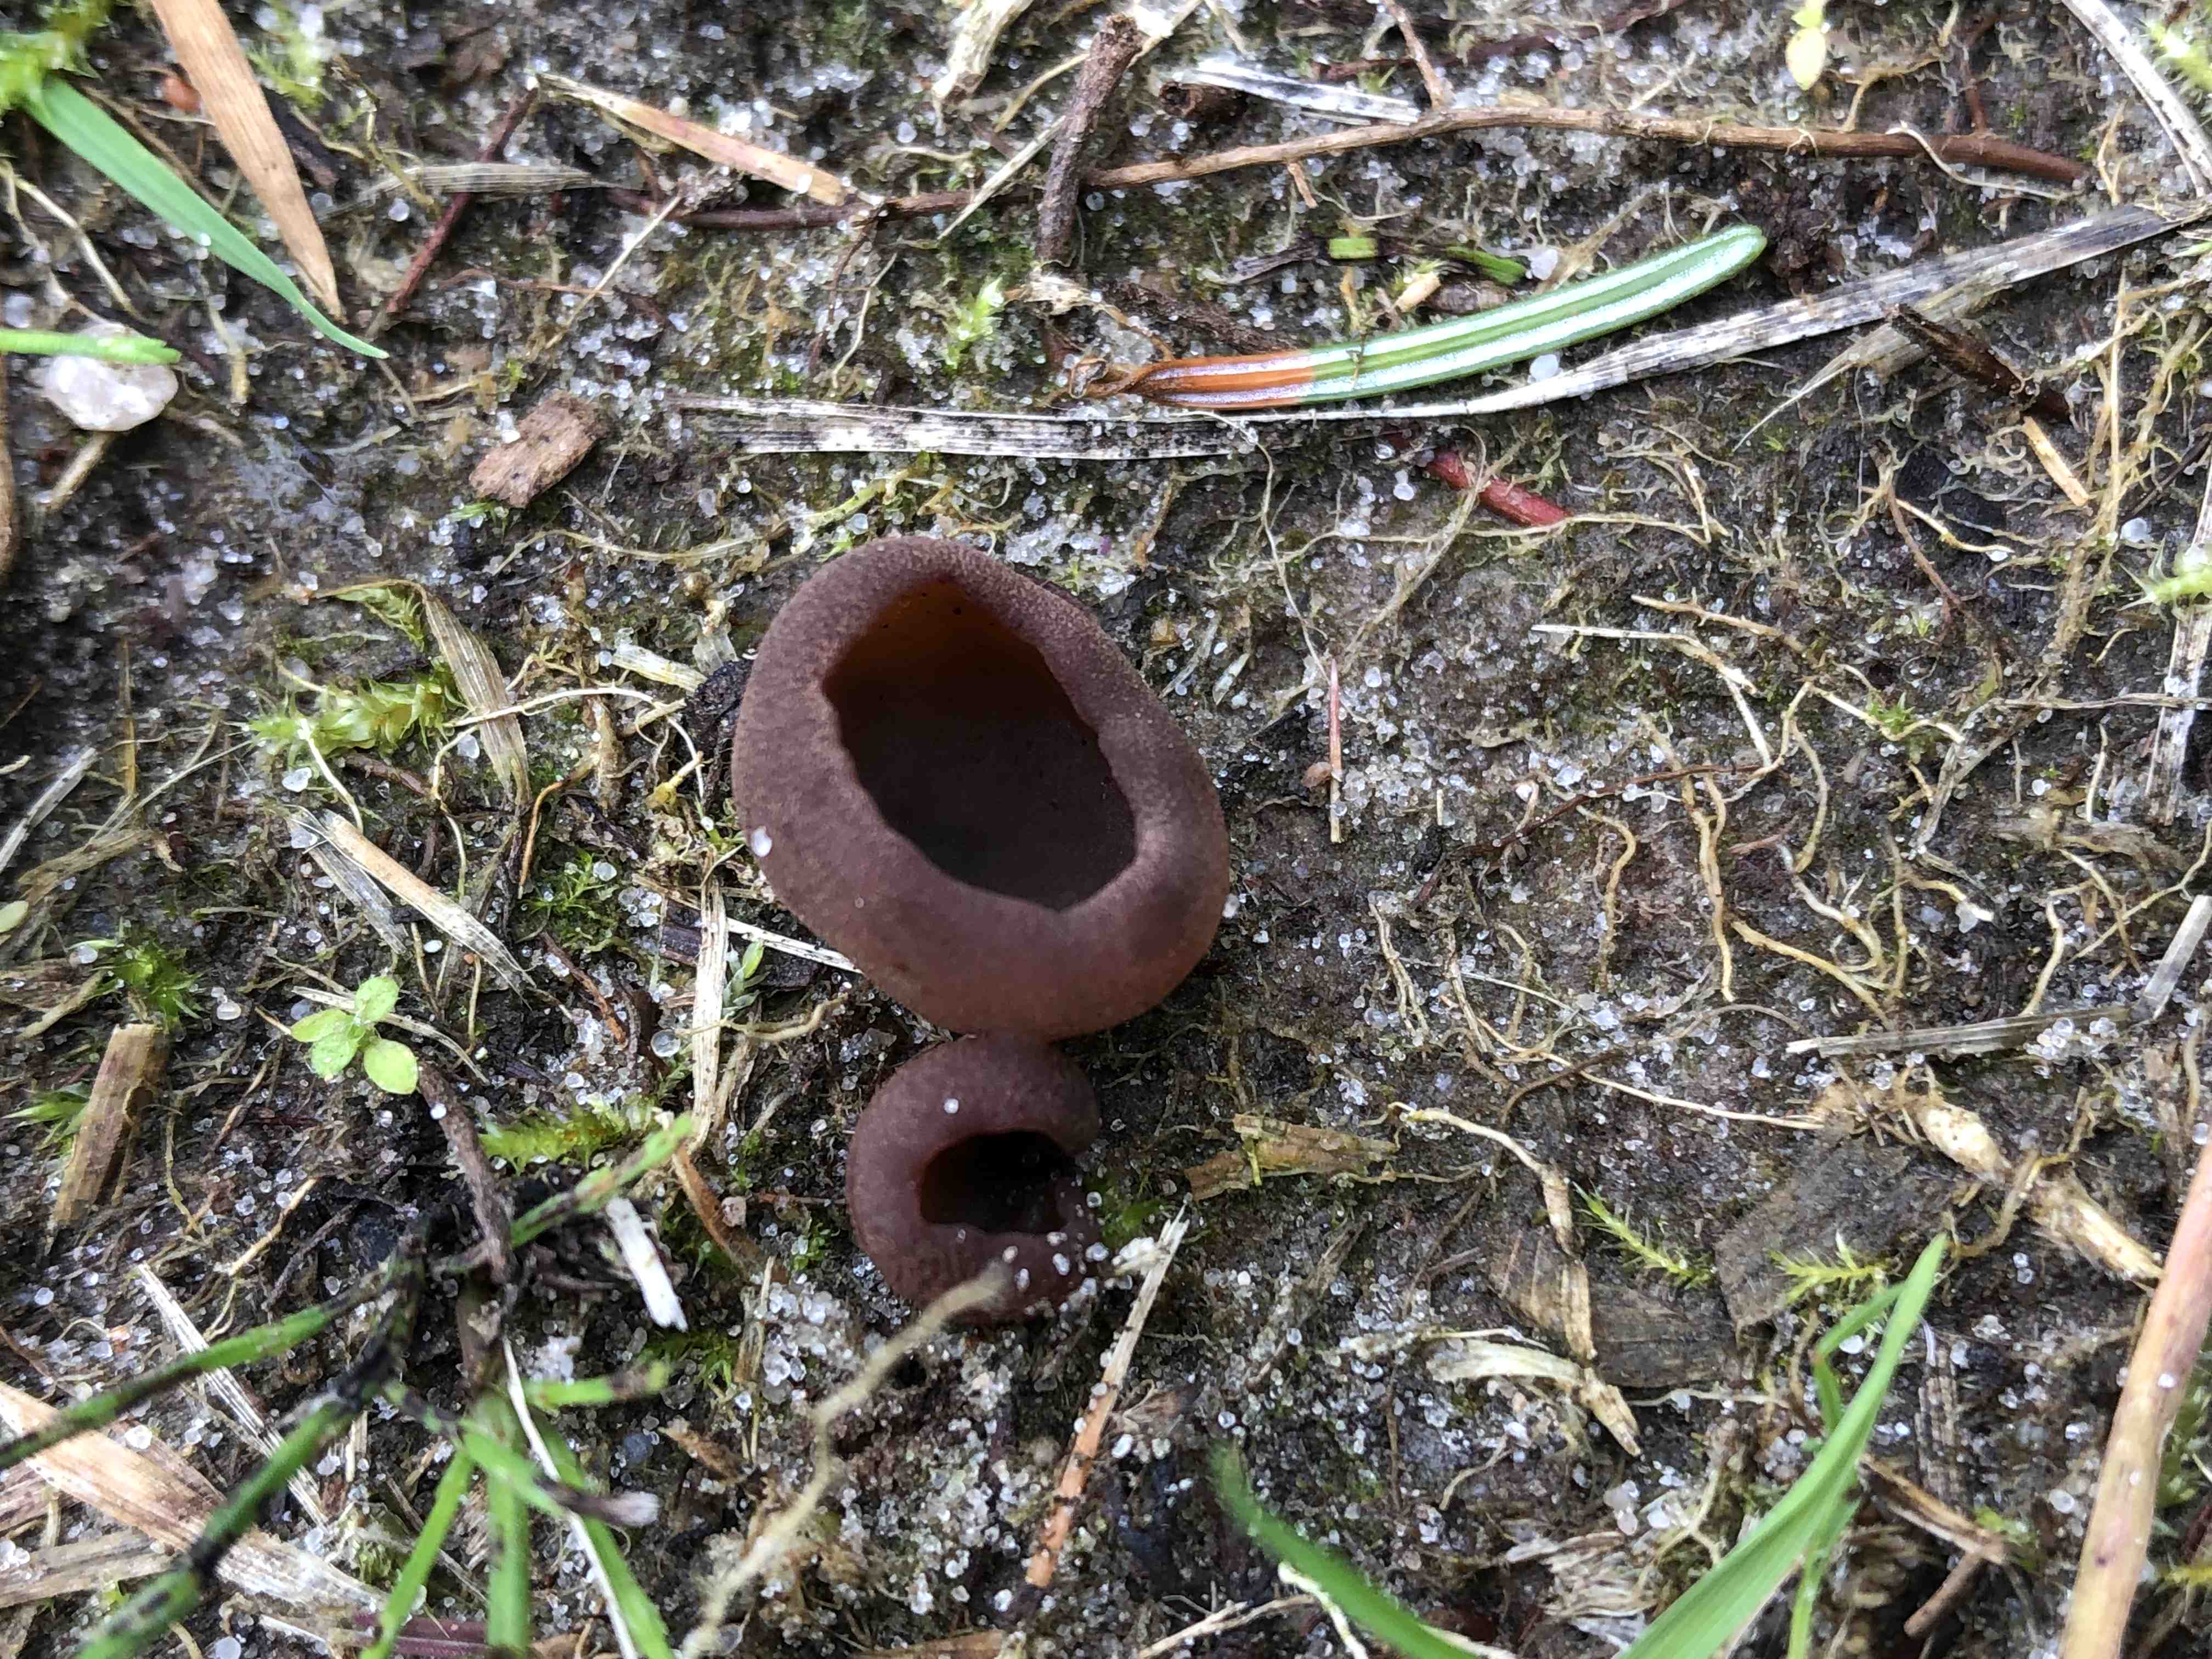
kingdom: Fungi
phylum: Ascomycota
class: Pezizomycetes
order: Pezizales
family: Pezizaceae
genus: Peziza
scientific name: Peziza
